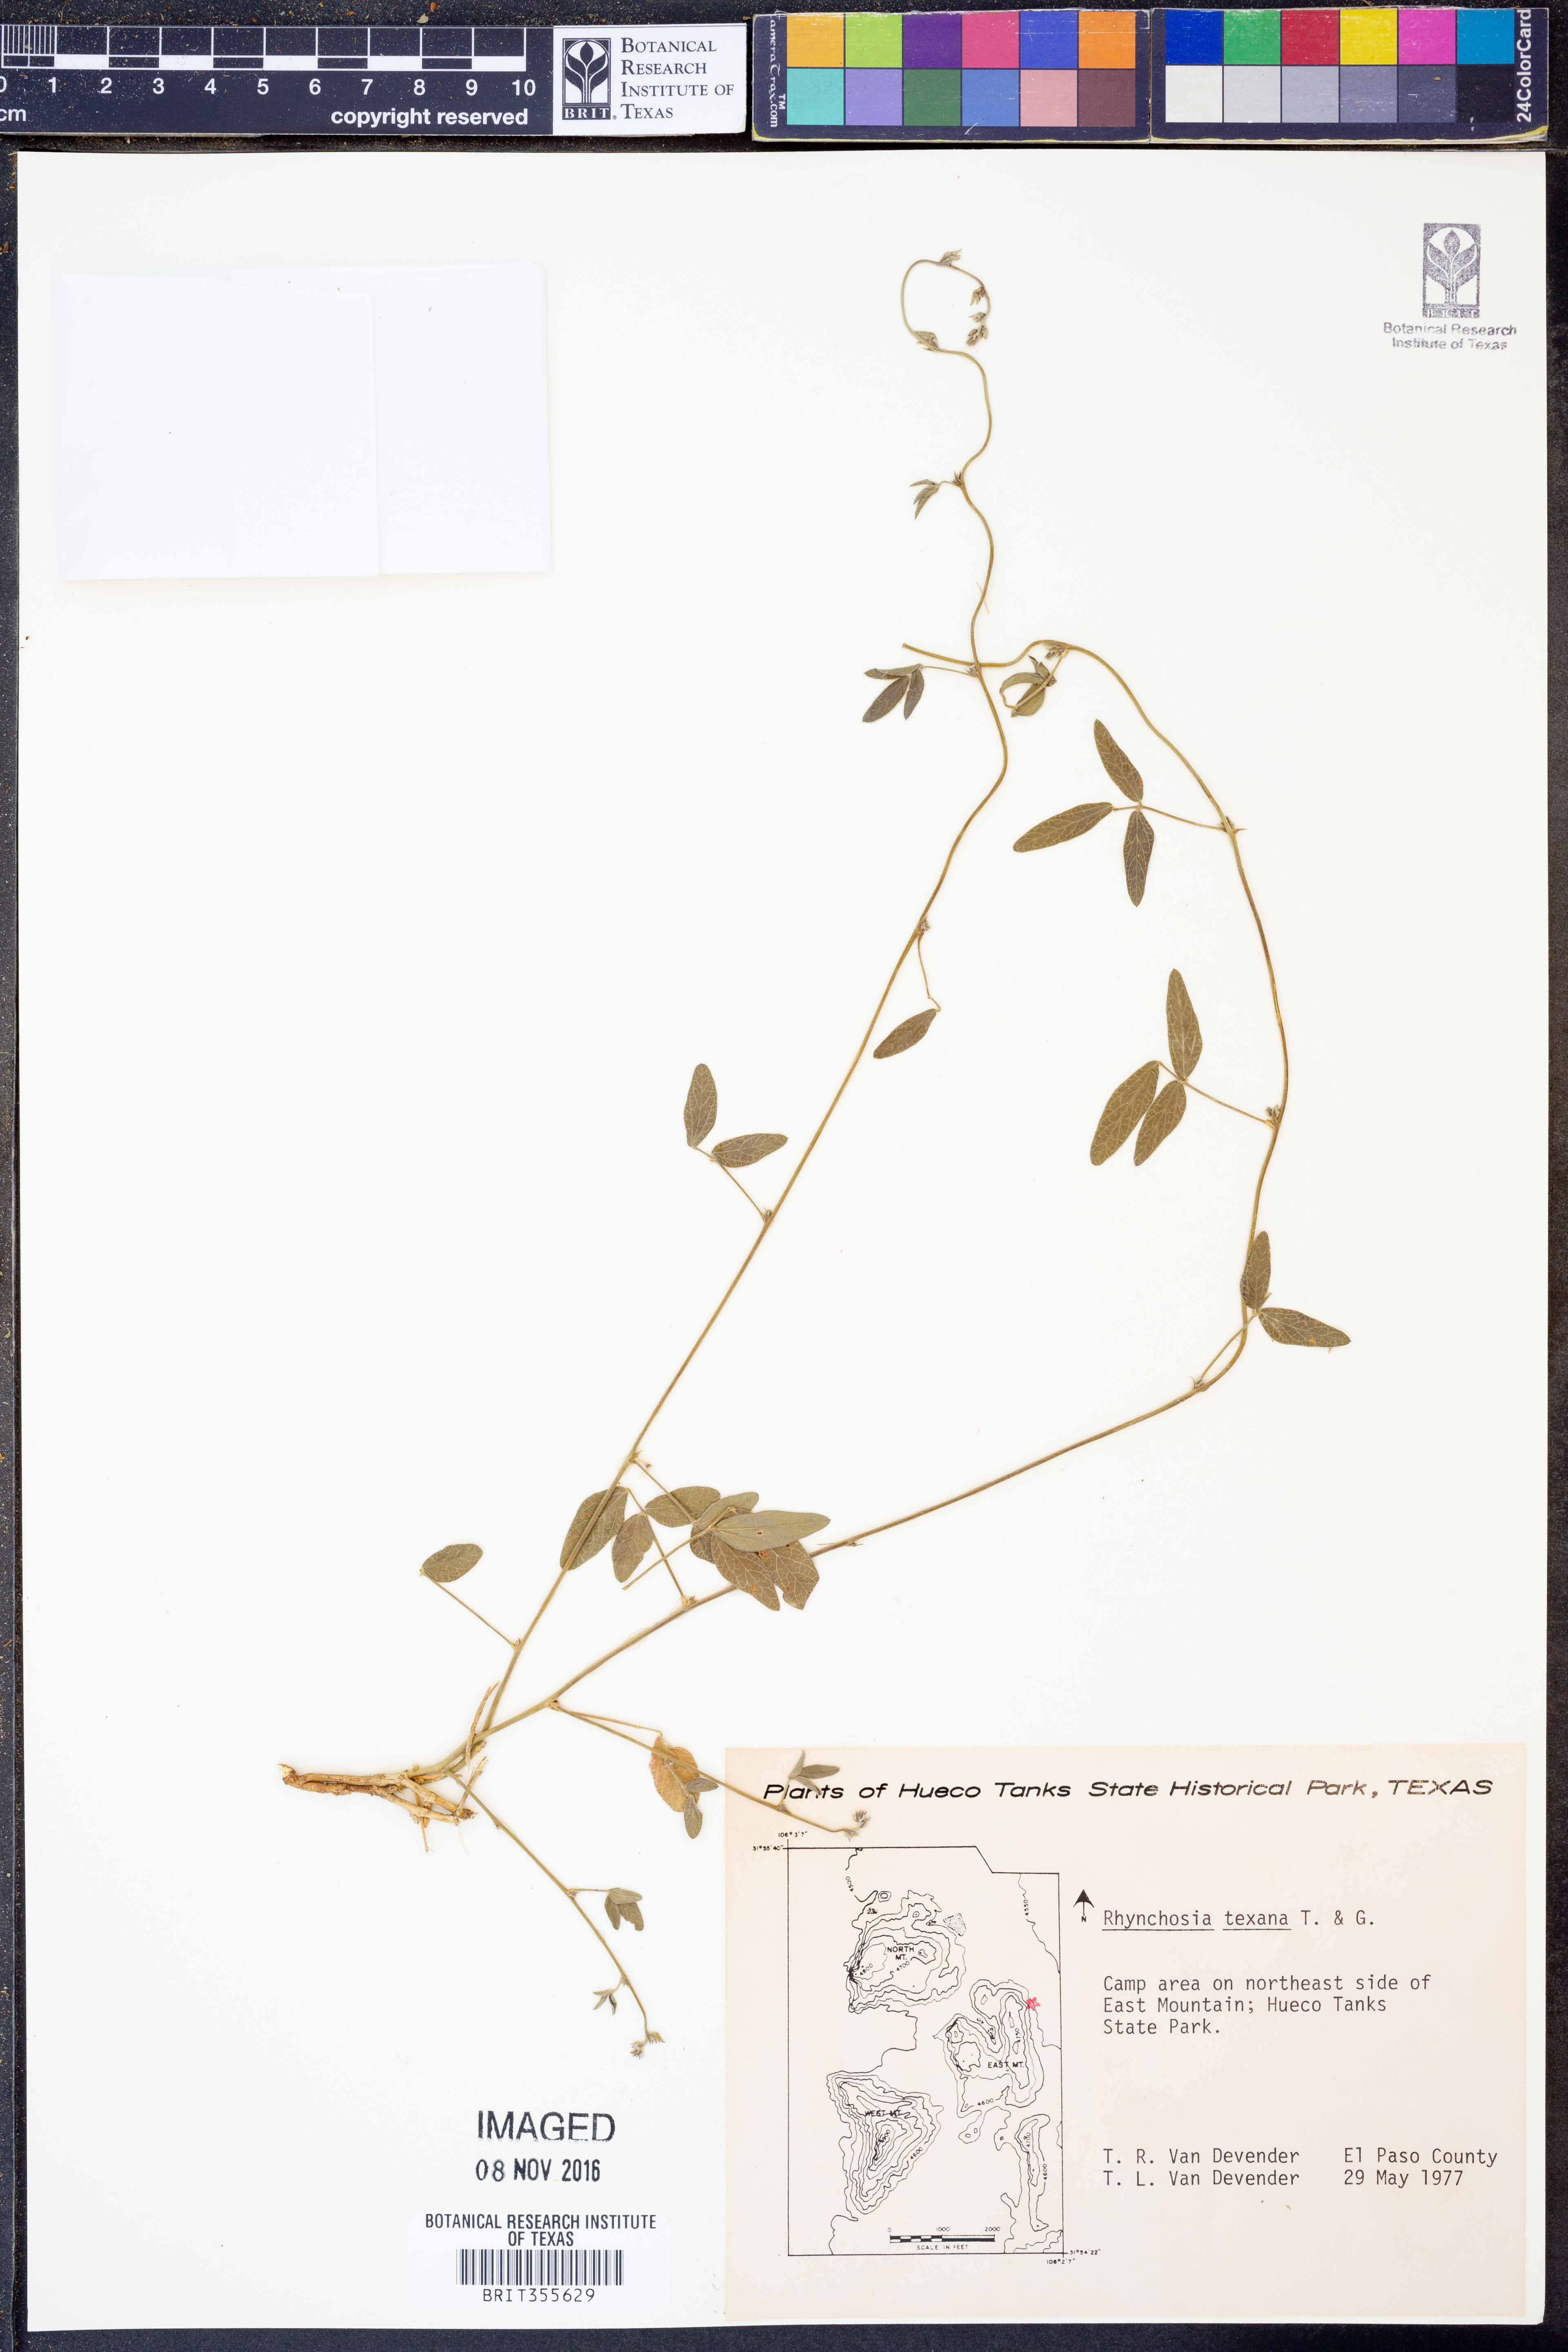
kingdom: Plantae
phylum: Tracheophyta
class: Magnoliopsida
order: Fabales
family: Fabaceae
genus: Rhynchosia
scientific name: Rhynchosia senna
